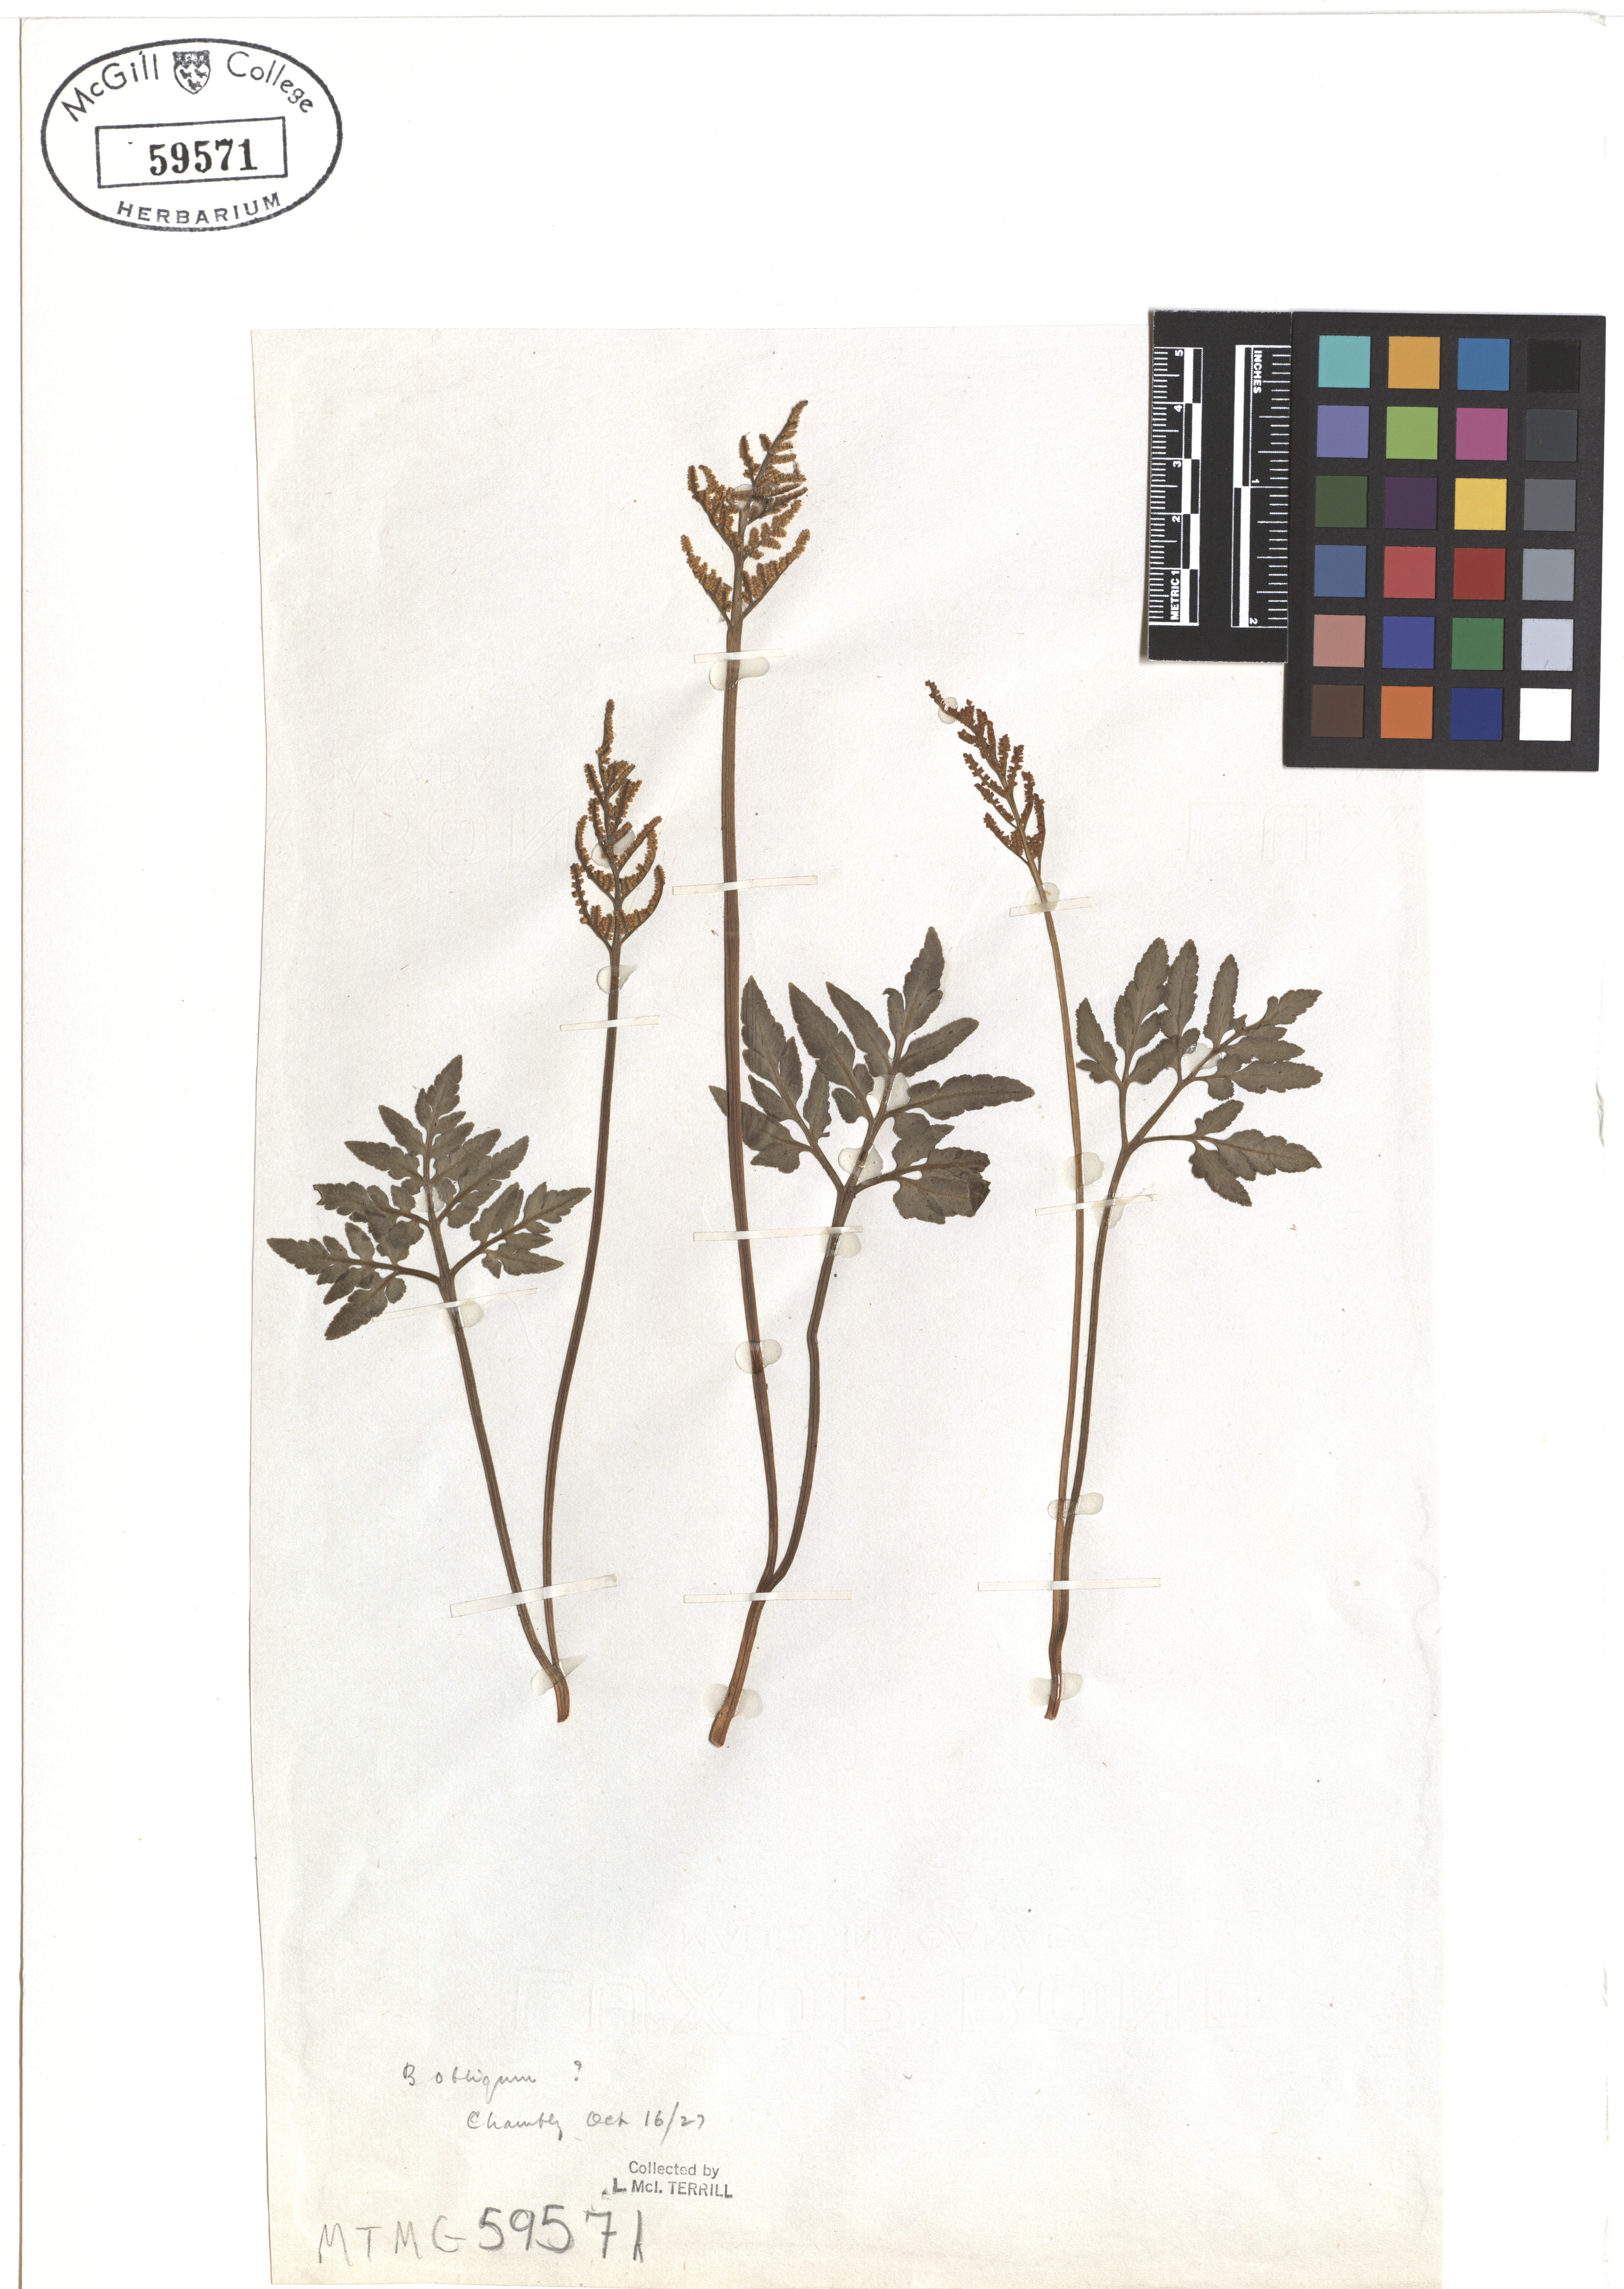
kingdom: Plantae
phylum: Tracheophyta
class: Polypodiopsida
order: Ophioglossales
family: Ophioglossaceae
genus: Botrychium
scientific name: Botrychium
